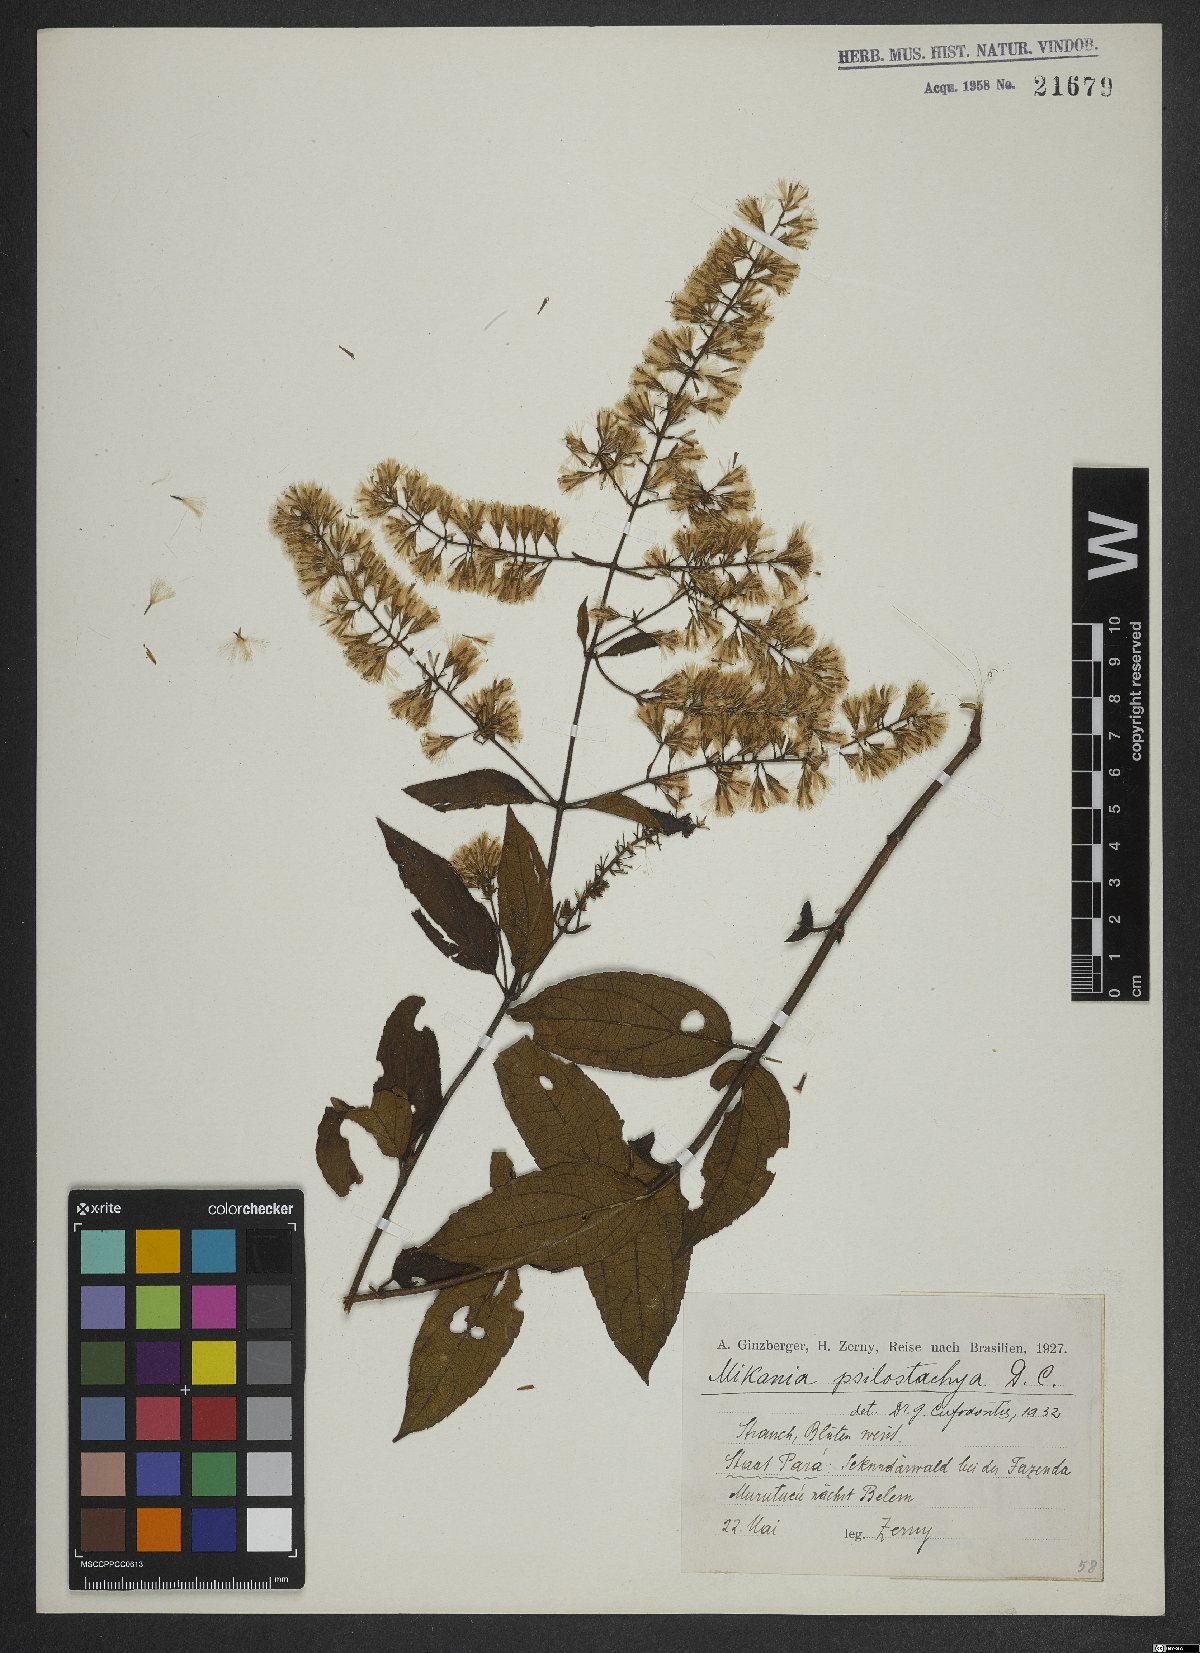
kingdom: Plantae
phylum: Tracheophyta
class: Magnoliopsida
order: Asterales
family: Asteraceae
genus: Mikania
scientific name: Mikania psilostachya
